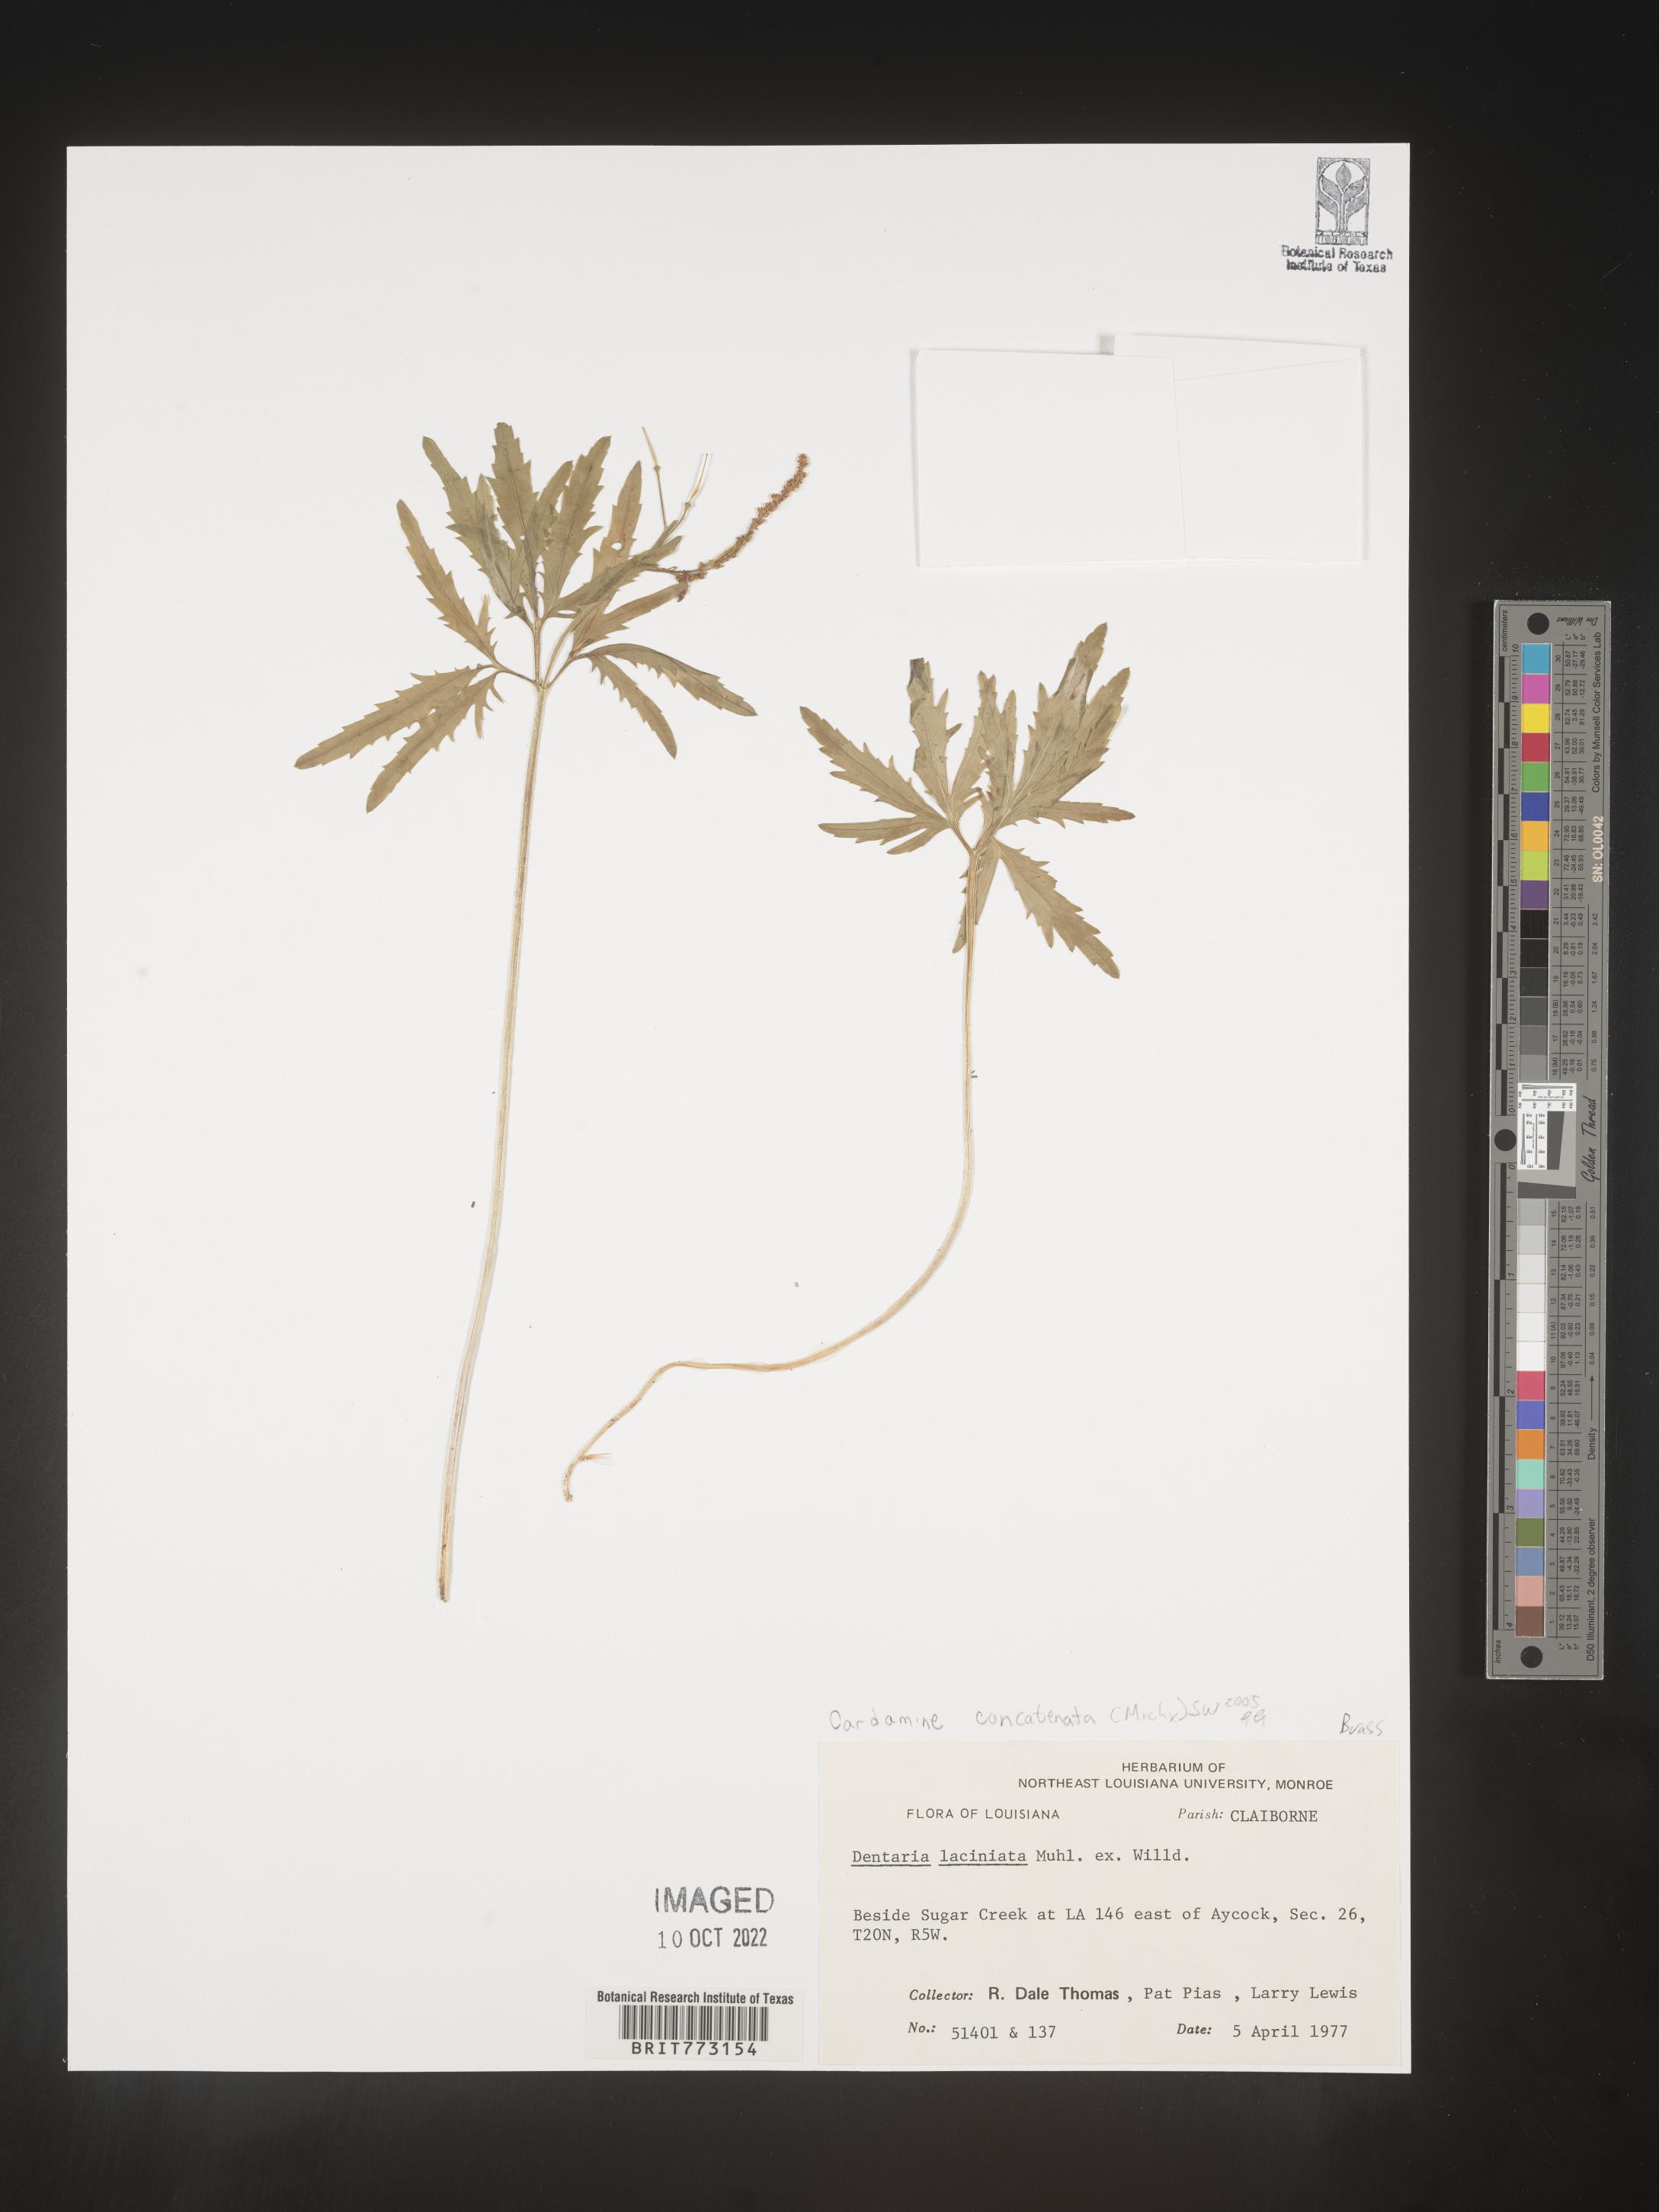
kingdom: Plantae
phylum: Tracheophyta
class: Magnoliopsida
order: Brassicales
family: Brassicaceae
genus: Cardamine
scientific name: Cardamine
